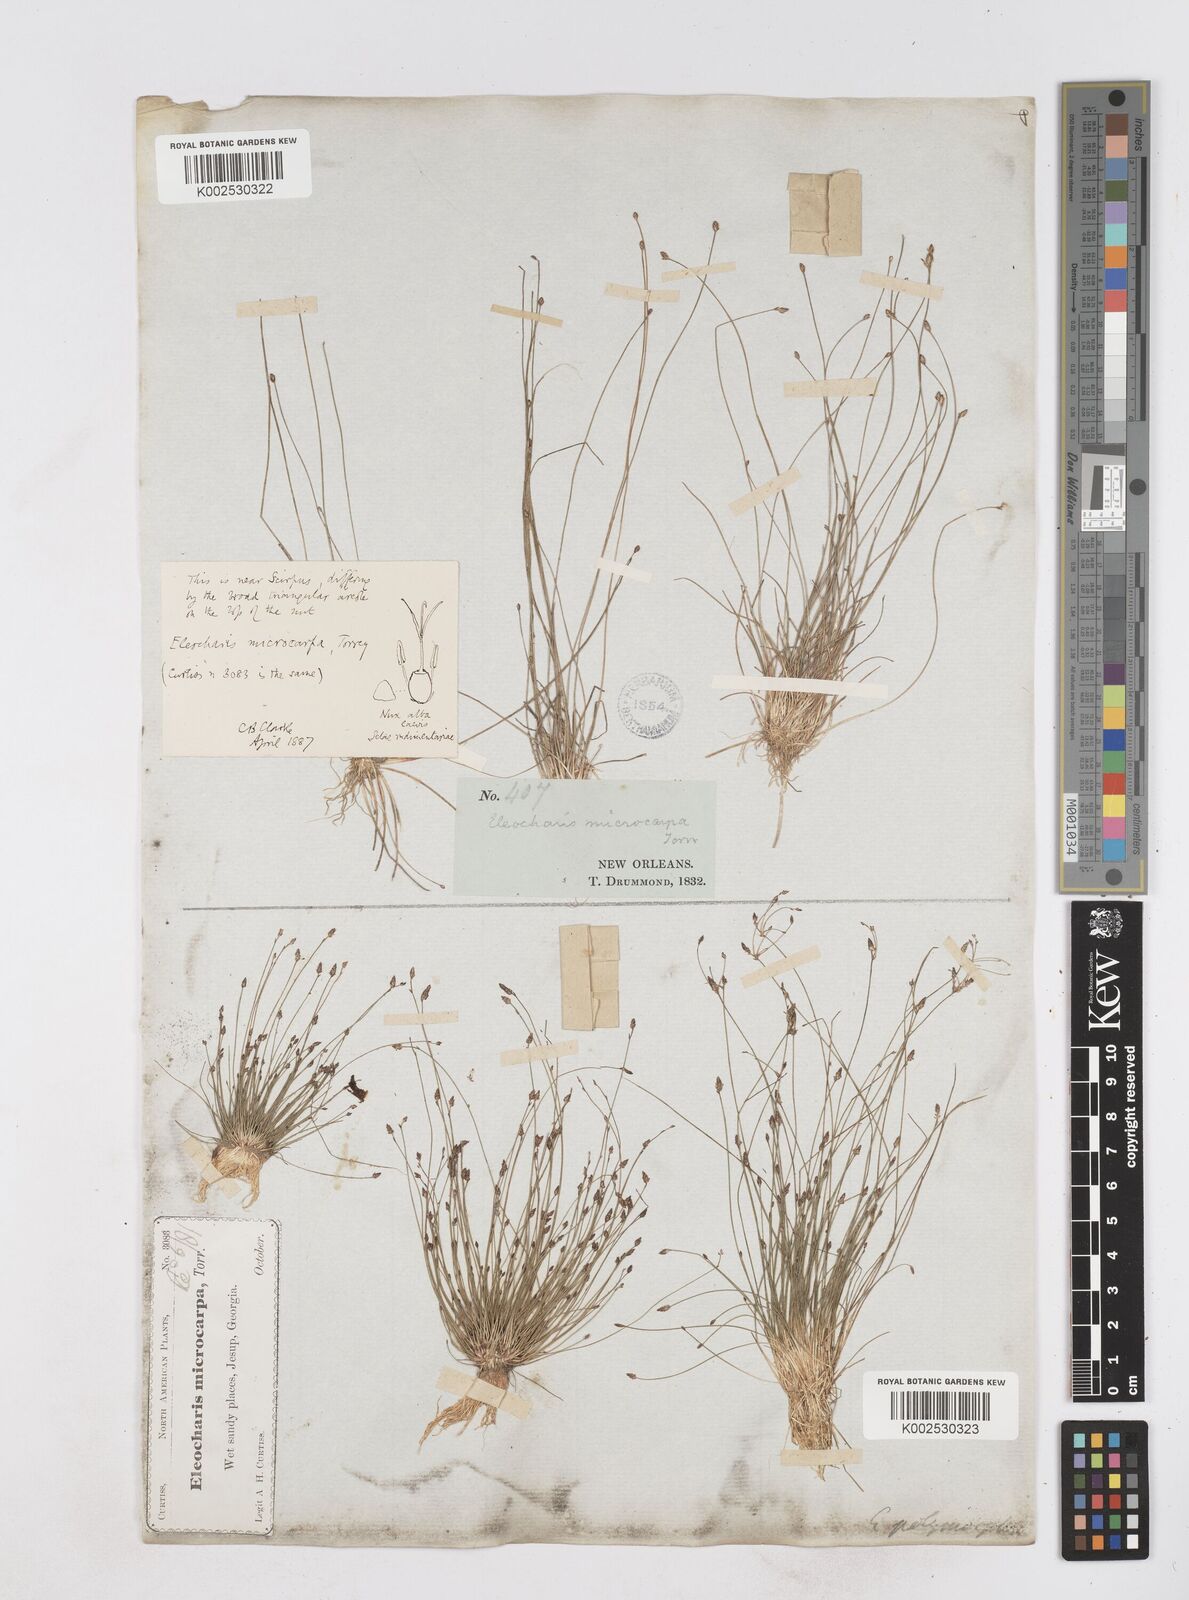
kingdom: Plantae
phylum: Tracheophyta
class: Liliopsida
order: Poales
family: Cyperaceae
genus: Eleocharis
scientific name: Eleocharis microcarpa
